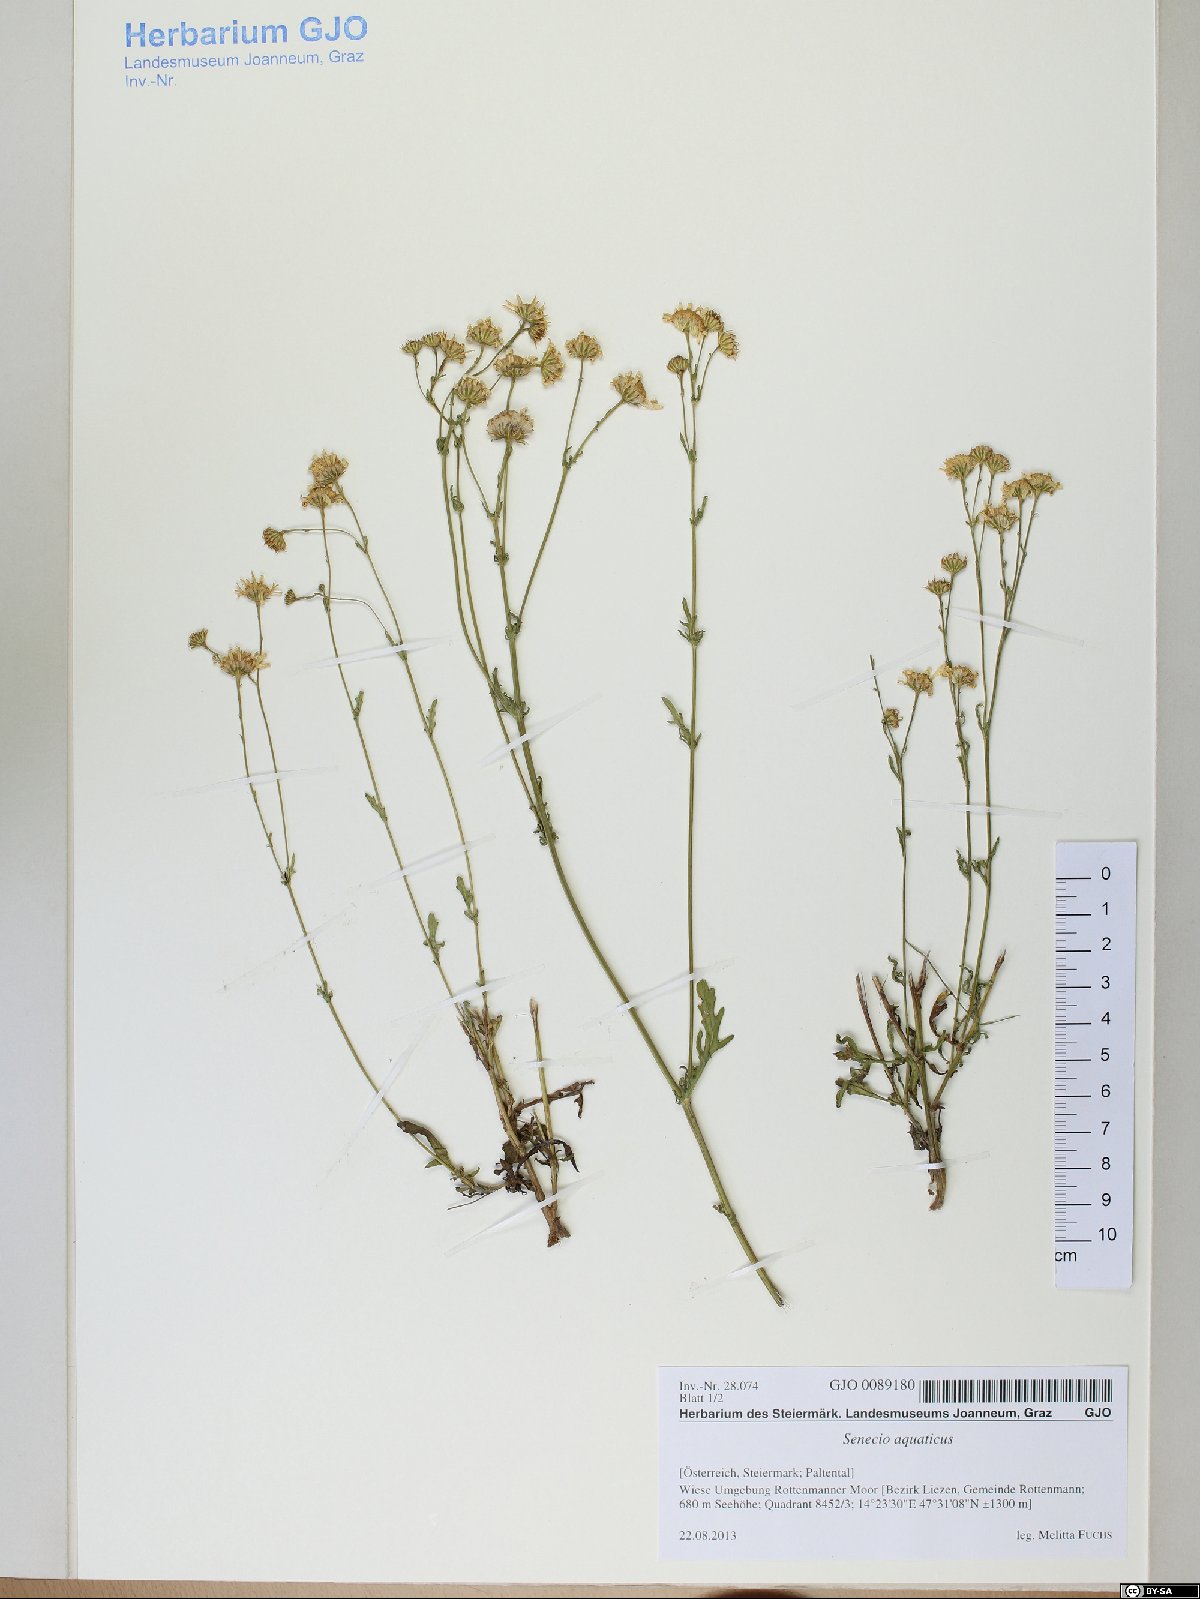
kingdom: Plantae
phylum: Tracheophyta
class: Magnoliopsida
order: Asterales
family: Asteraceae
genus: Jacobaea
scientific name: Jacobaea aquatica
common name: Water ragwort
